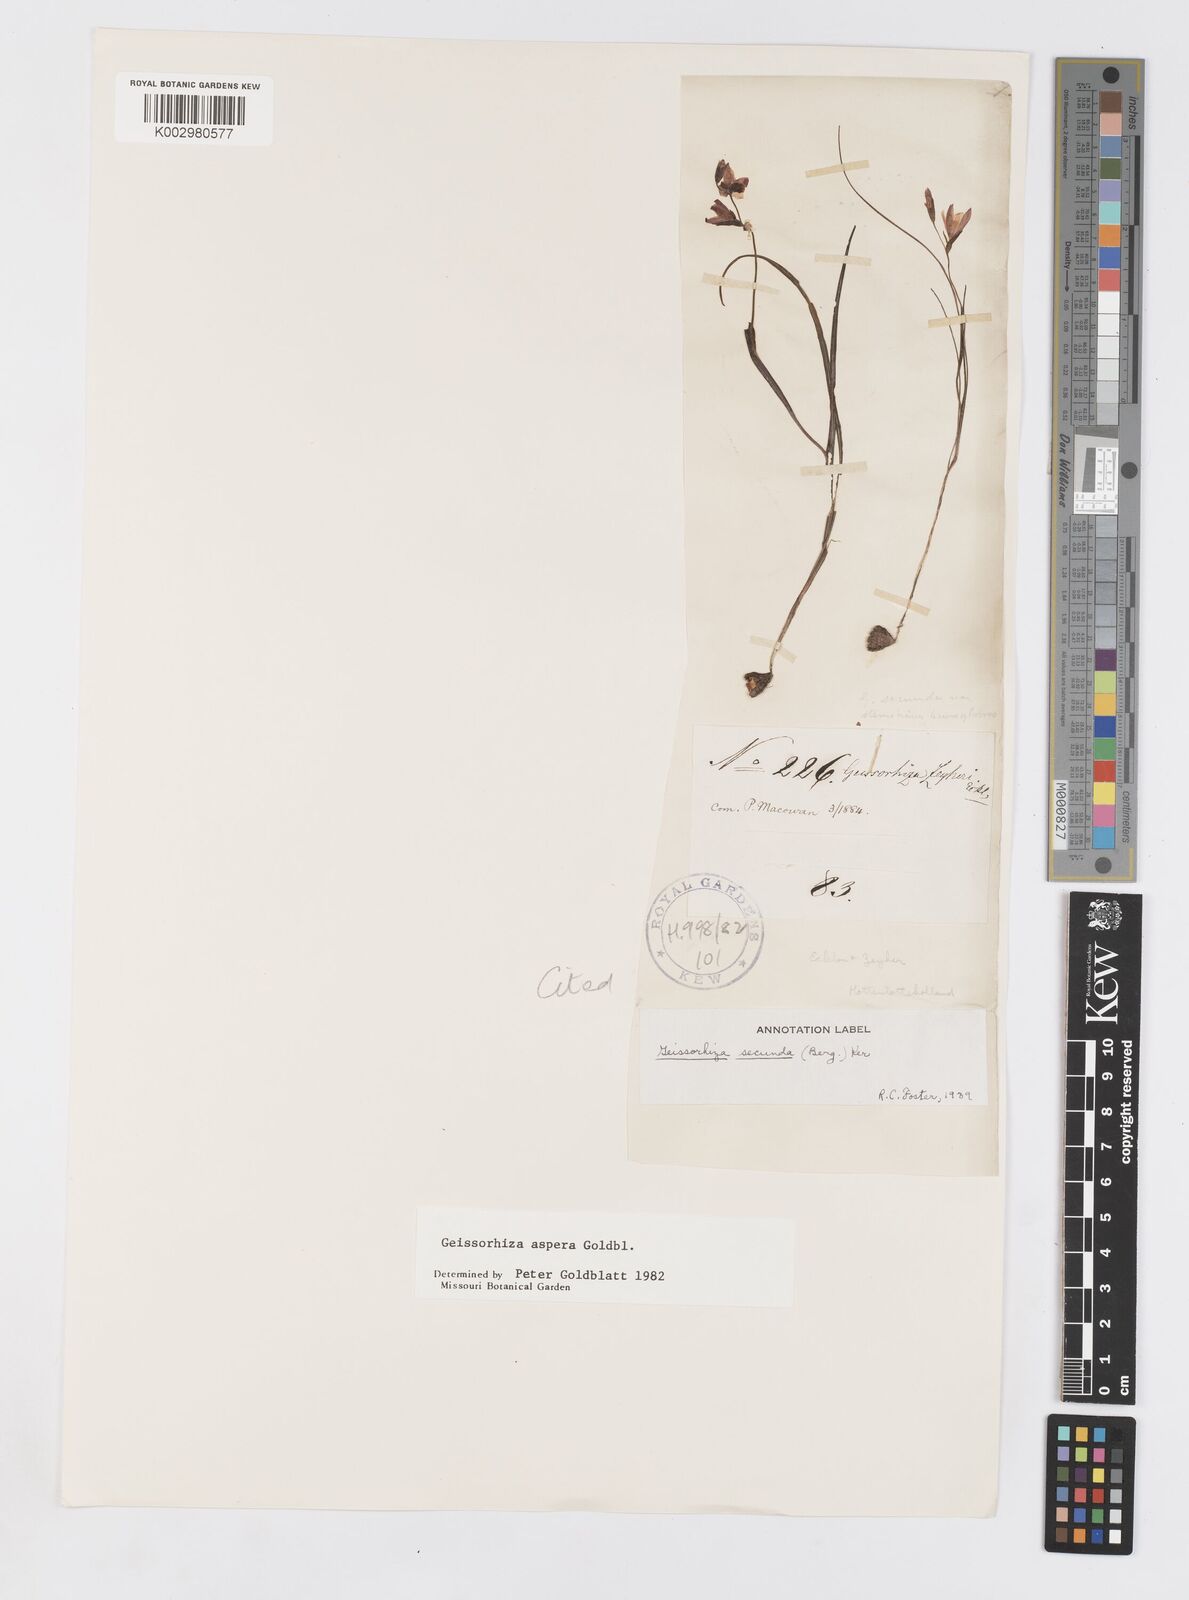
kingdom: Plantae
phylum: Tracheophyta
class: Liliopsida
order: Asparagales
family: Iridaceae
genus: Geissorhiza
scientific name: Geissorhiza aspera
